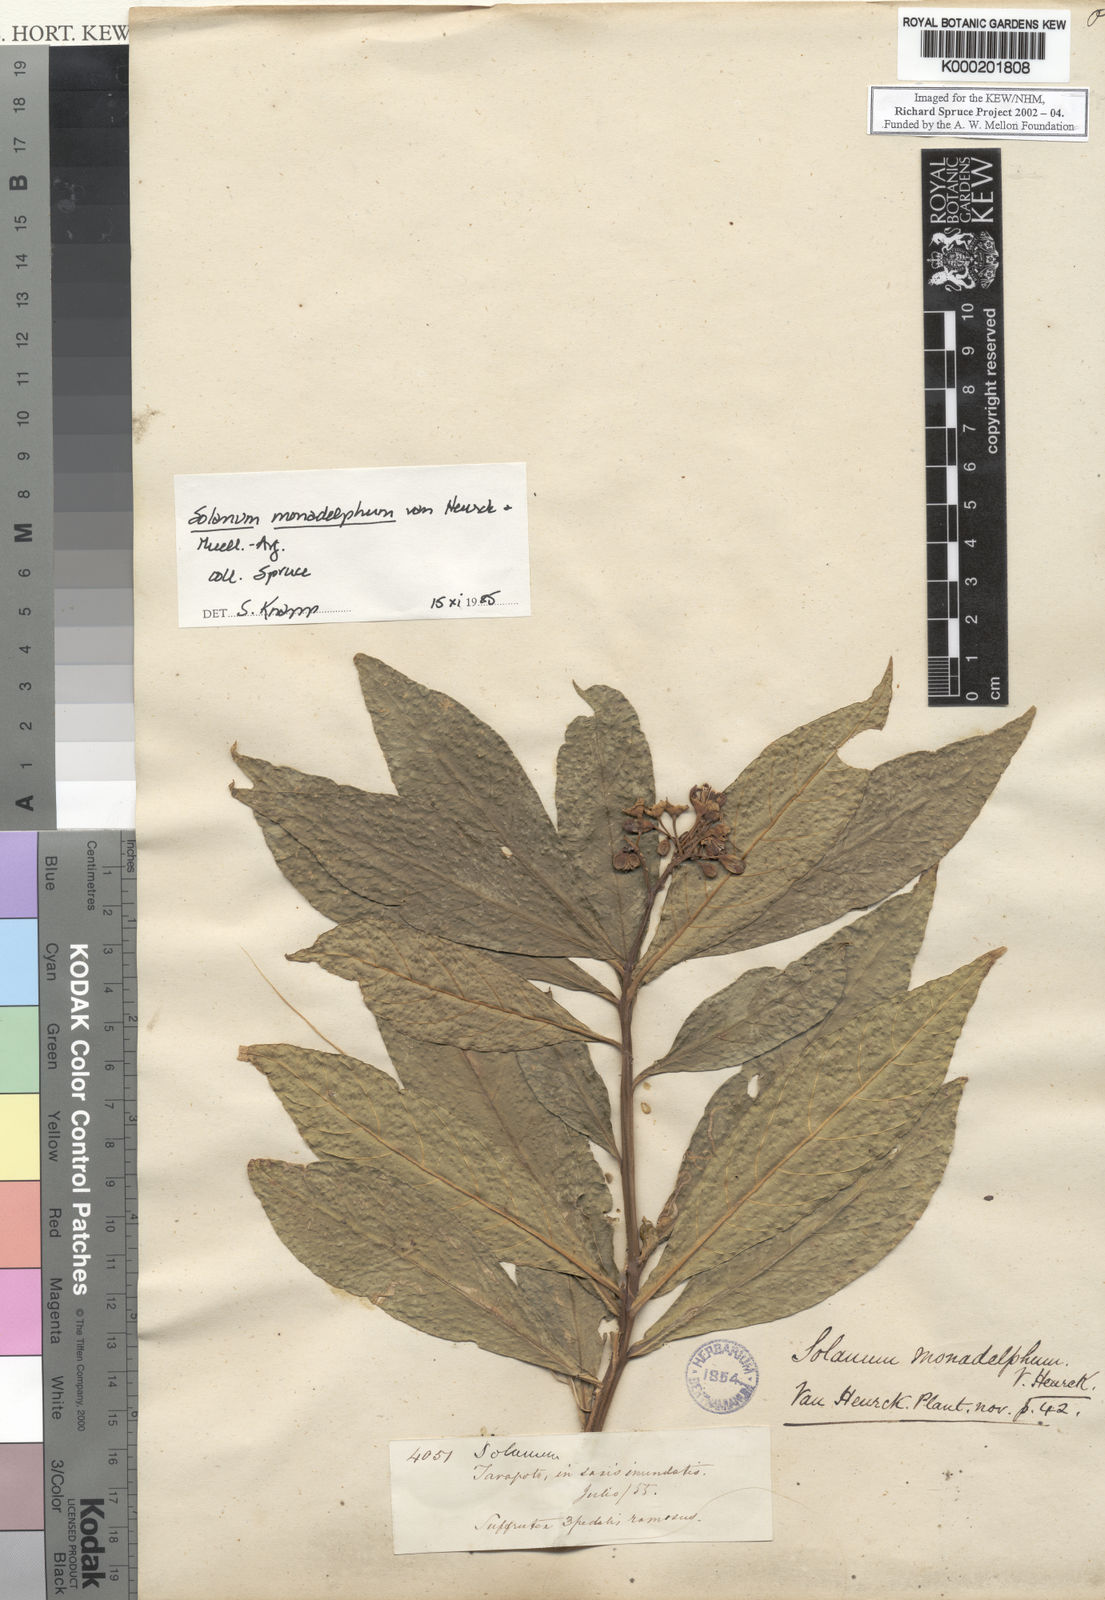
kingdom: Plantae
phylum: Tracheophyta
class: Magnoliopsida
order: Solanales
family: Solanaceae
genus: Solanum
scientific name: Solanum
